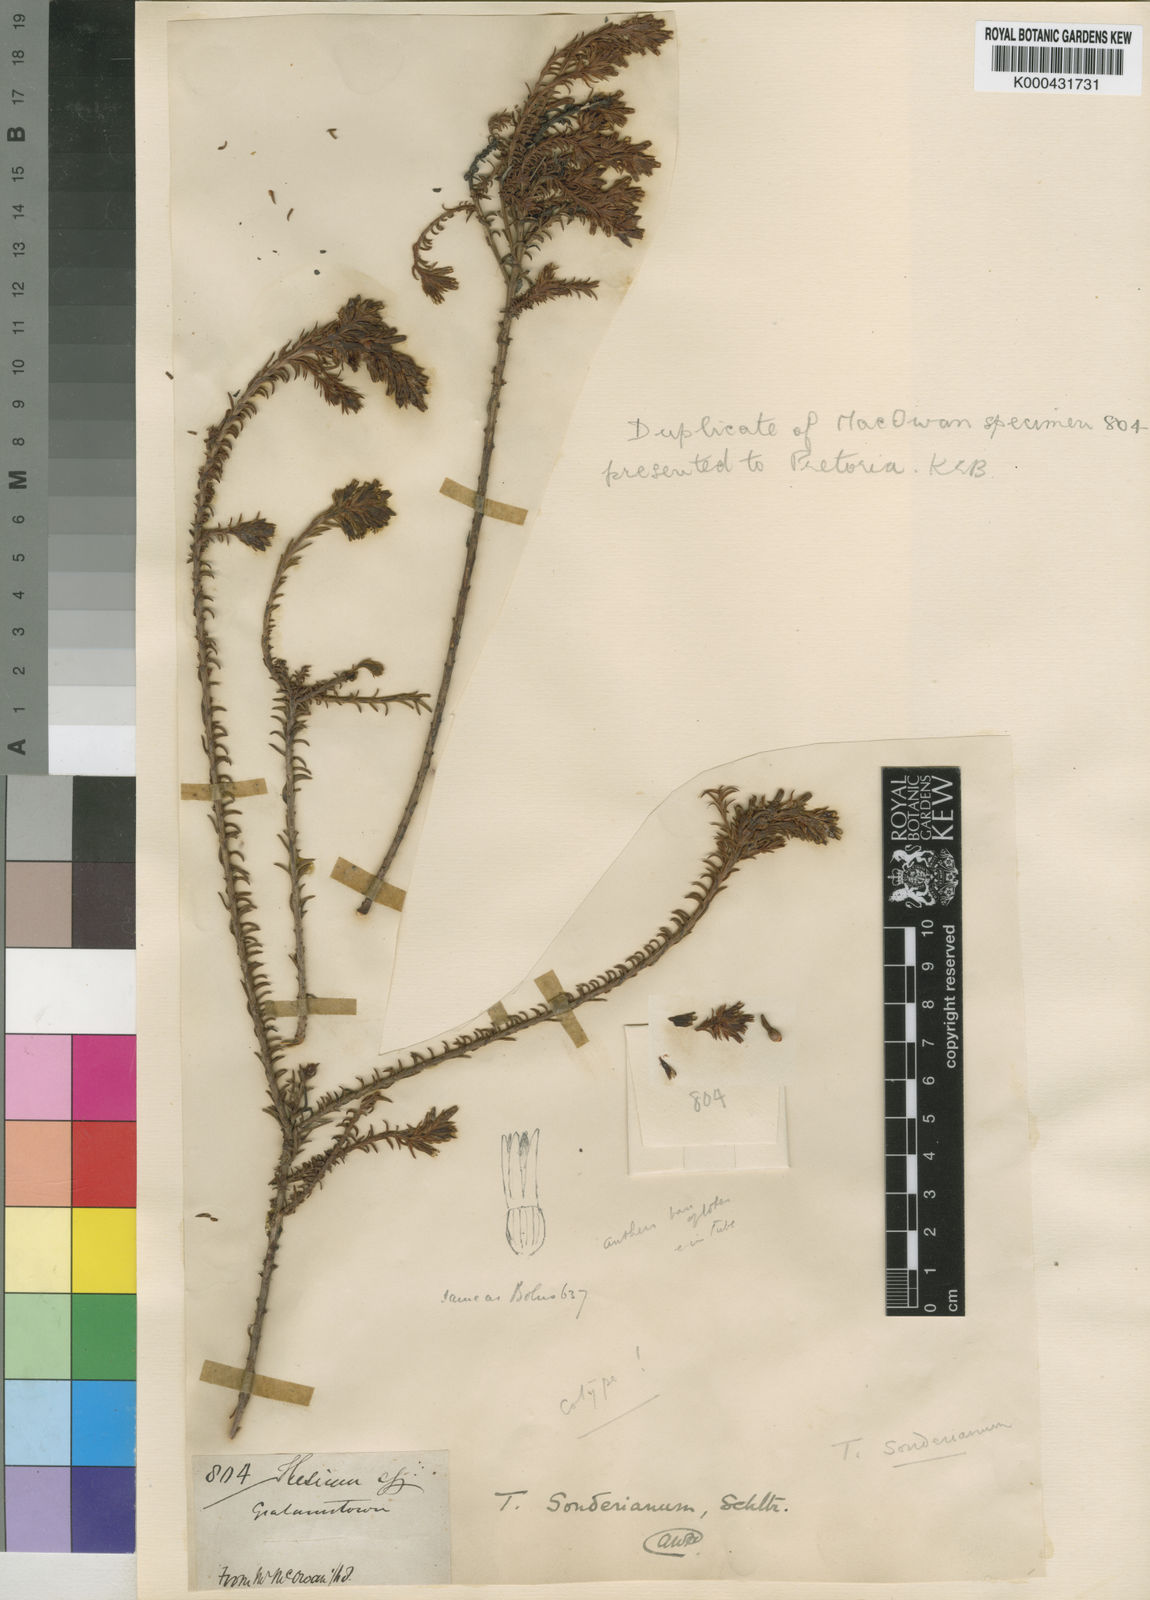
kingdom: Plantae
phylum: Tracheophyta
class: Magnoliopsida
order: Santalales
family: Thesiaceae
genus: Thesium
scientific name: Thesium sonderianum
